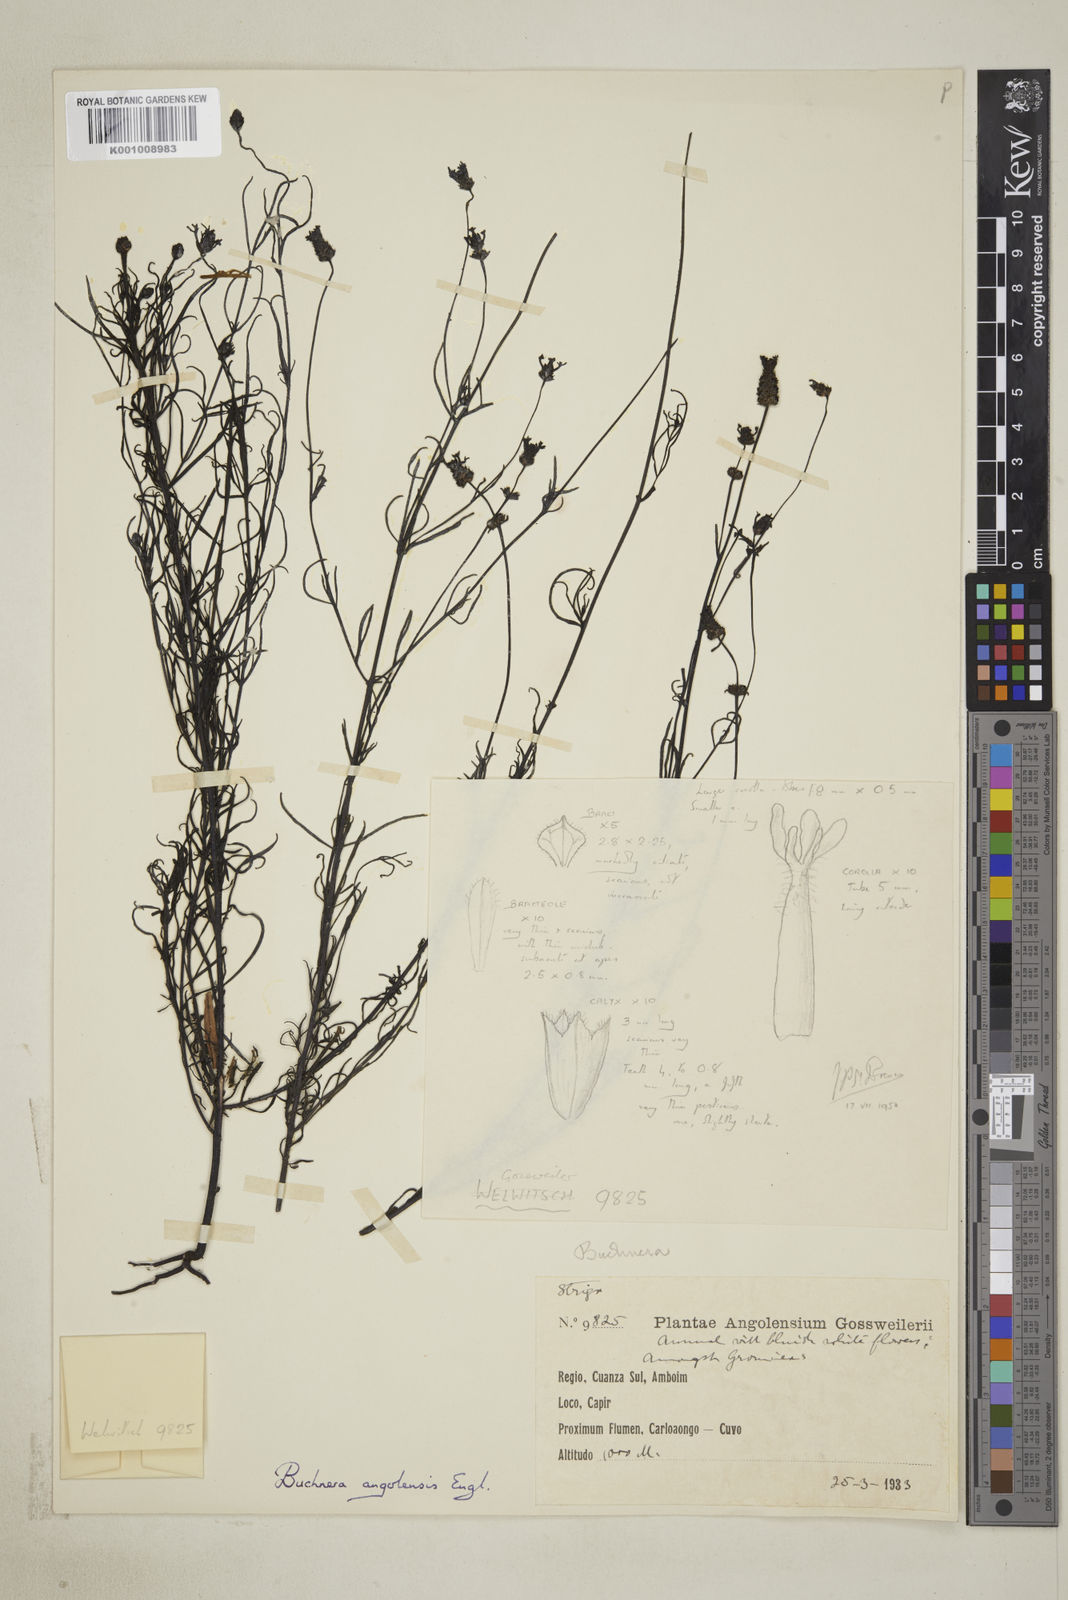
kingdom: Plantae
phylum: Tracheophyta
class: Magnoliopsida
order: Lamiales
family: Orobanchaceae
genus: Buchnera
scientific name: Buchnera lippioides
